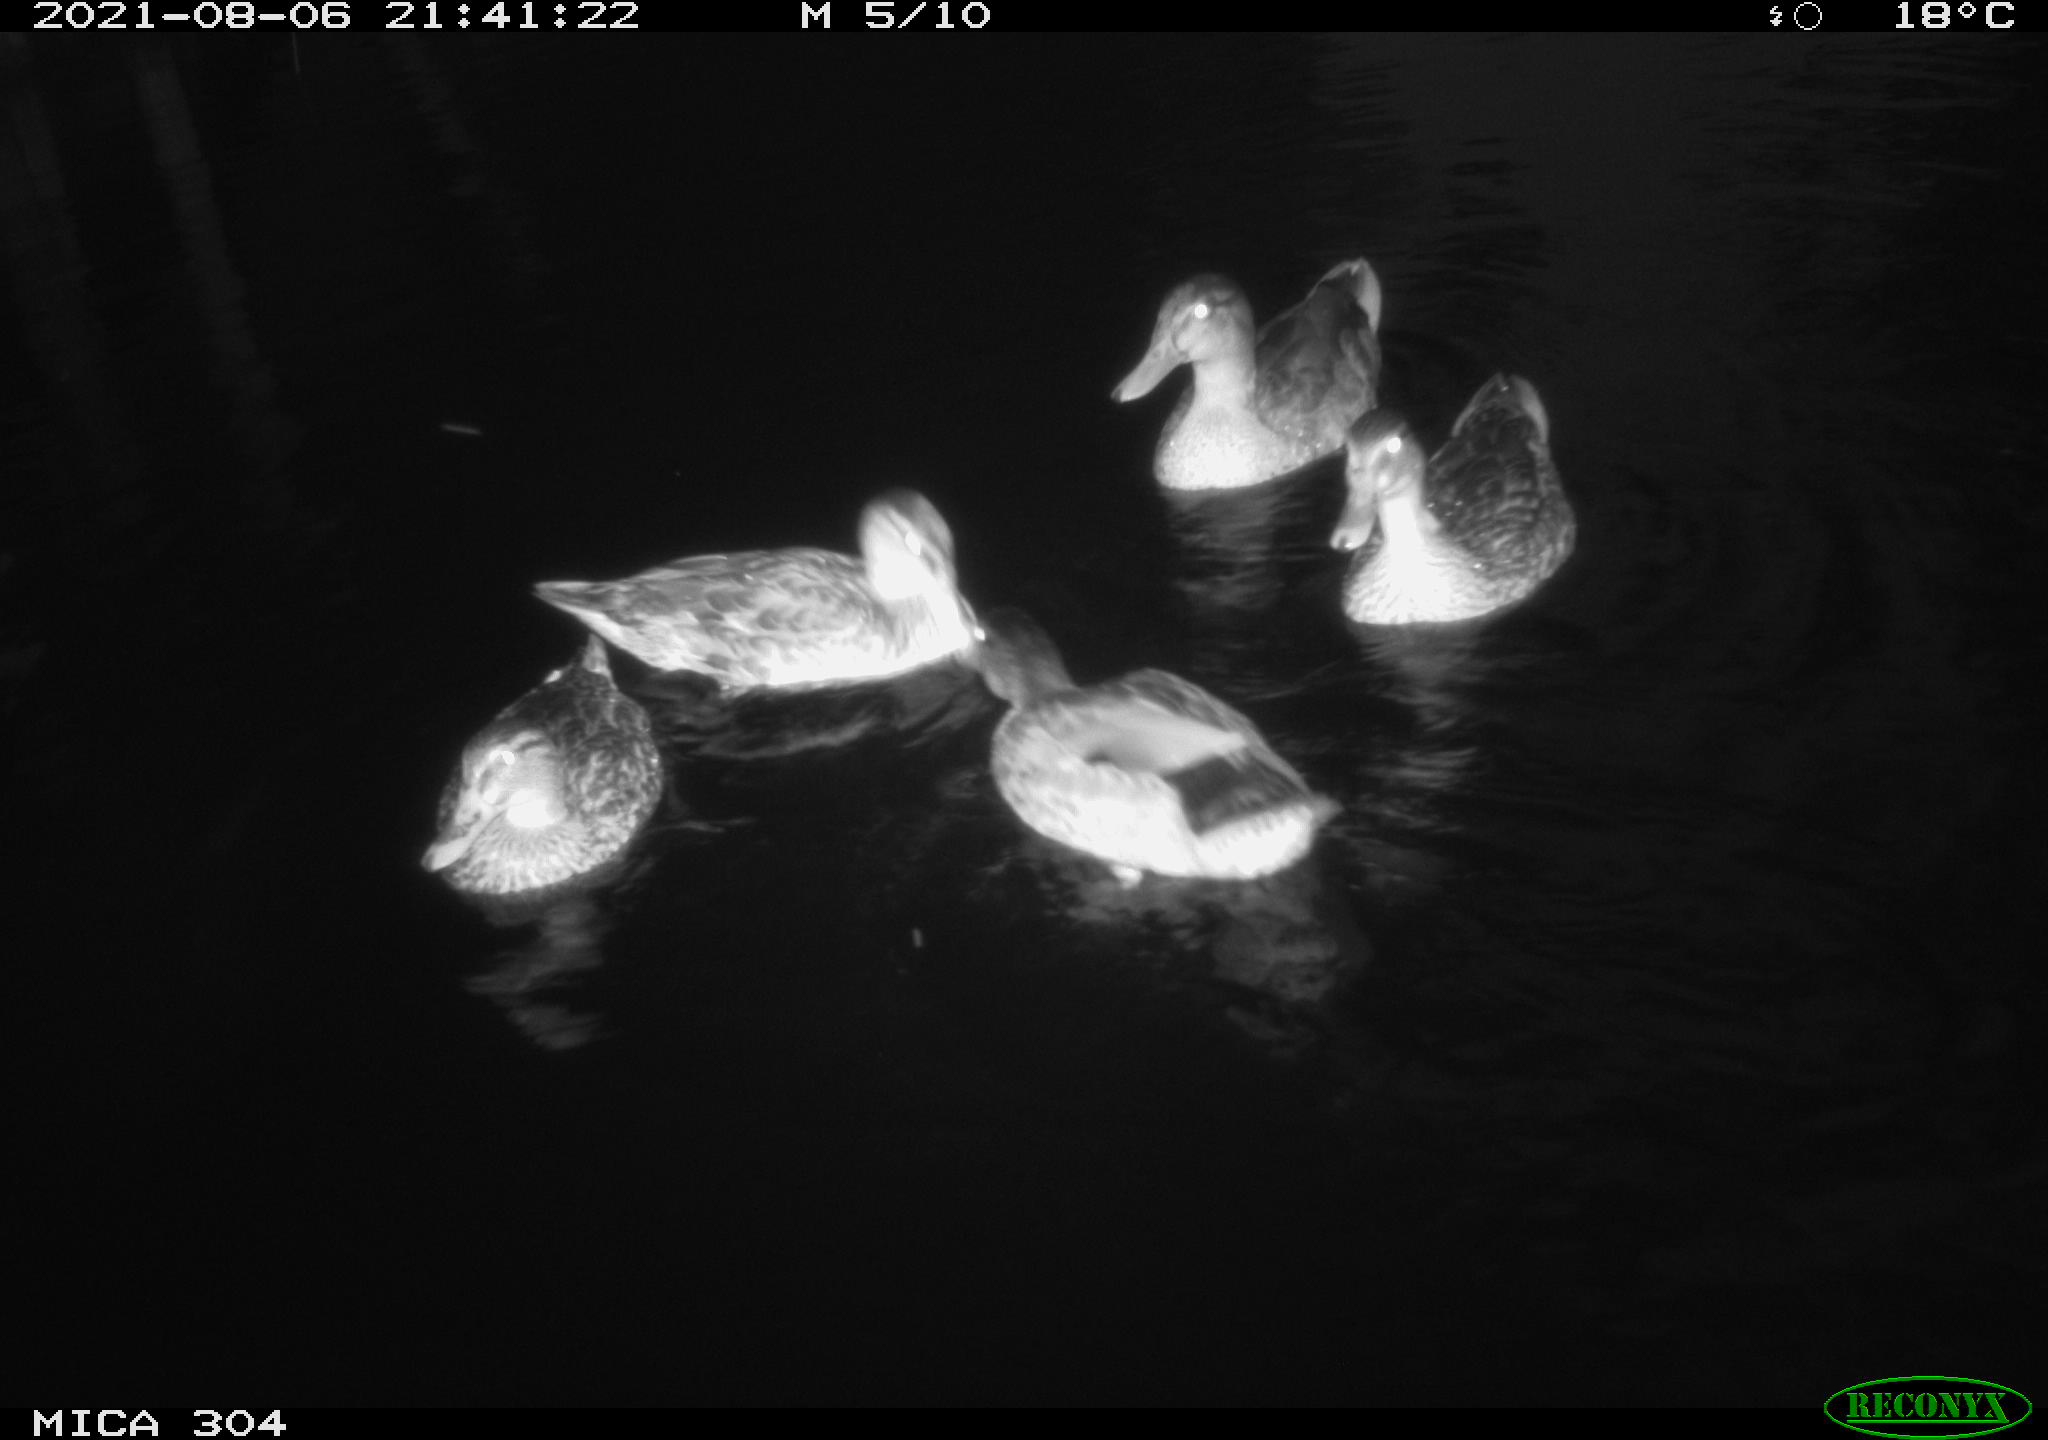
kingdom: Animalia
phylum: Chordata
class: Aves
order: Anseriformes
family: Anatidae
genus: Mareca
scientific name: Mareca strepera
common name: Gadwall
